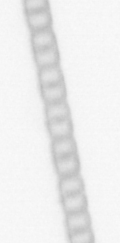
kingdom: Chromista
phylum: Ochrophyta
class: Bacillariophyceae
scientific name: Bacillariophyceae
